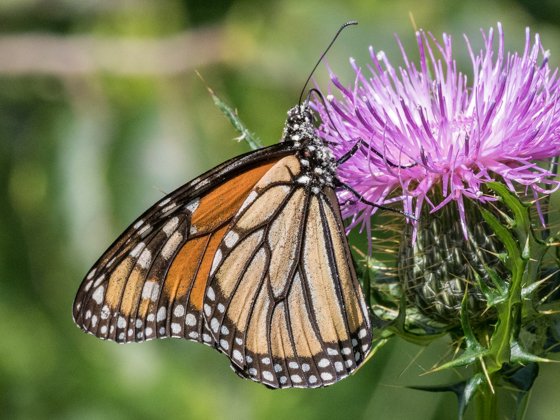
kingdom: Animalia
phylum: Arthropoda
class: Insecta
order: Lepidoptera
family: Nymphalidae
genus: Danaus
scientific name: Danaus plexippus
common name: Monarch
